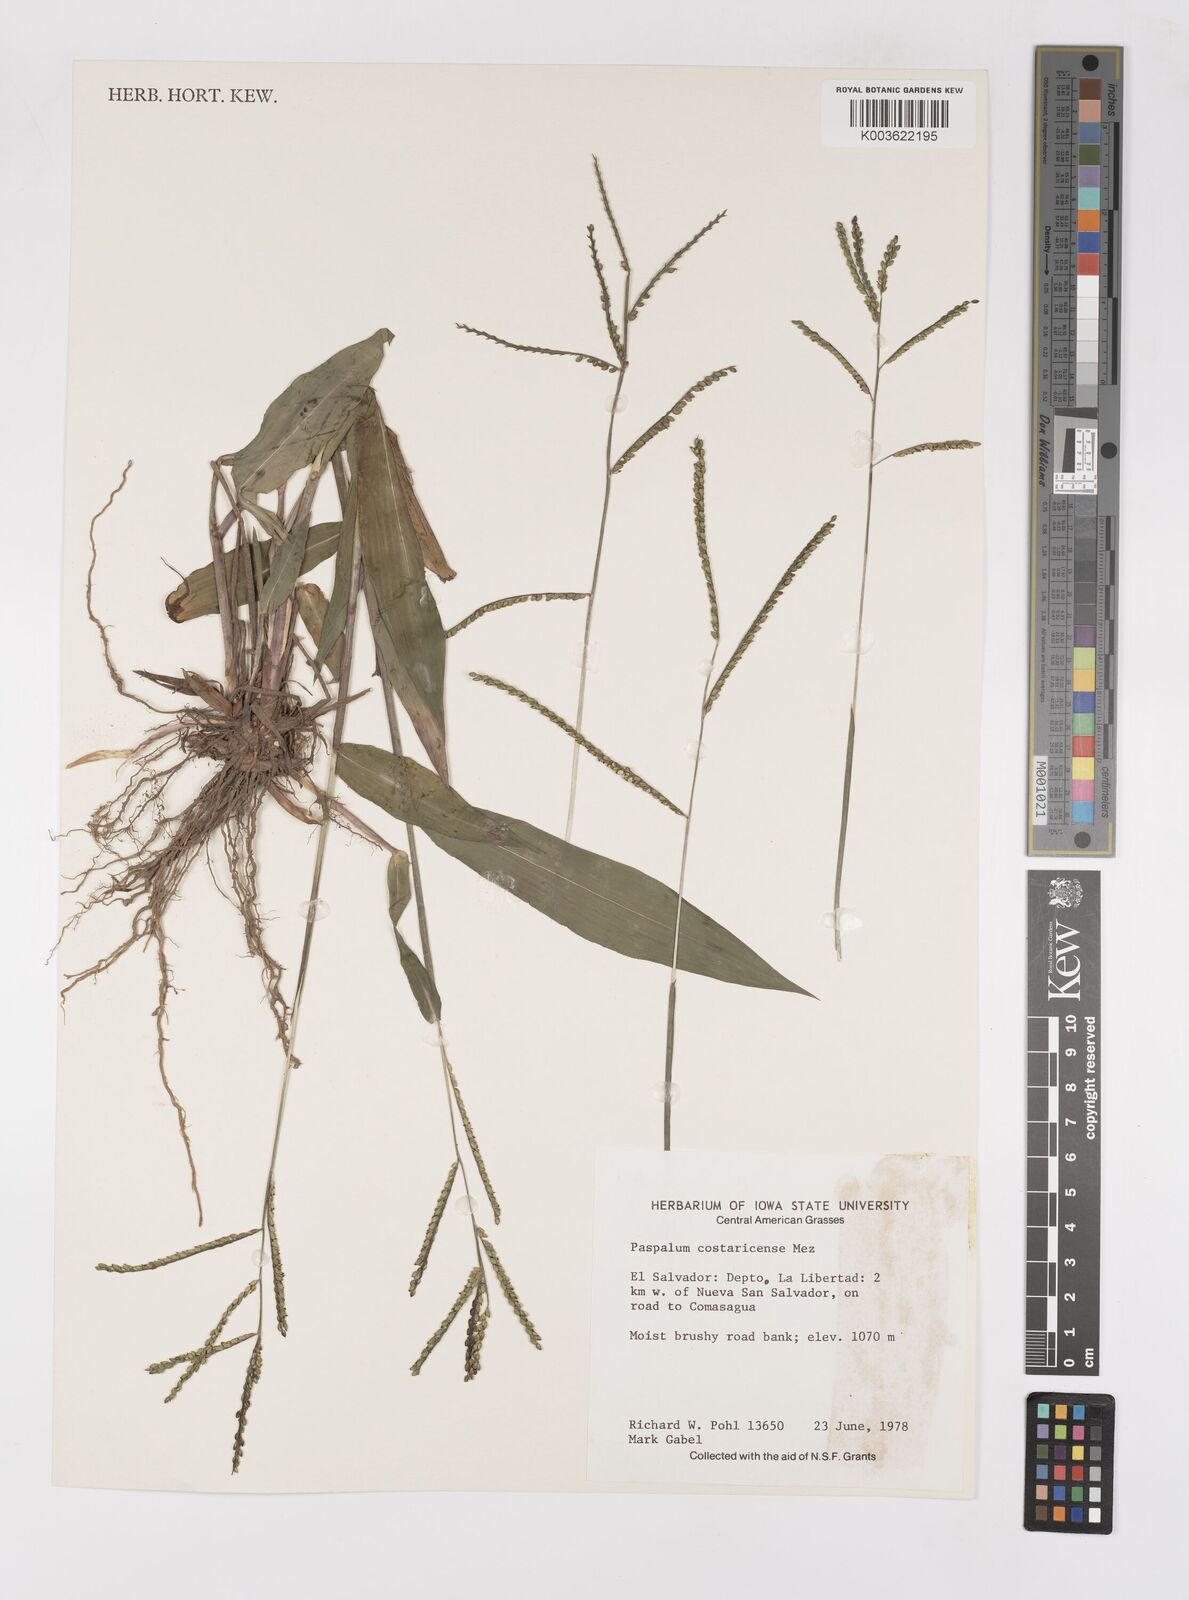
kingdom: Plantae
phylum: Tracheophyta
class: Liliopsida
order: Poales
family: Poaceae
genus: Paspalum
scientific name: Paspalum costaricense
